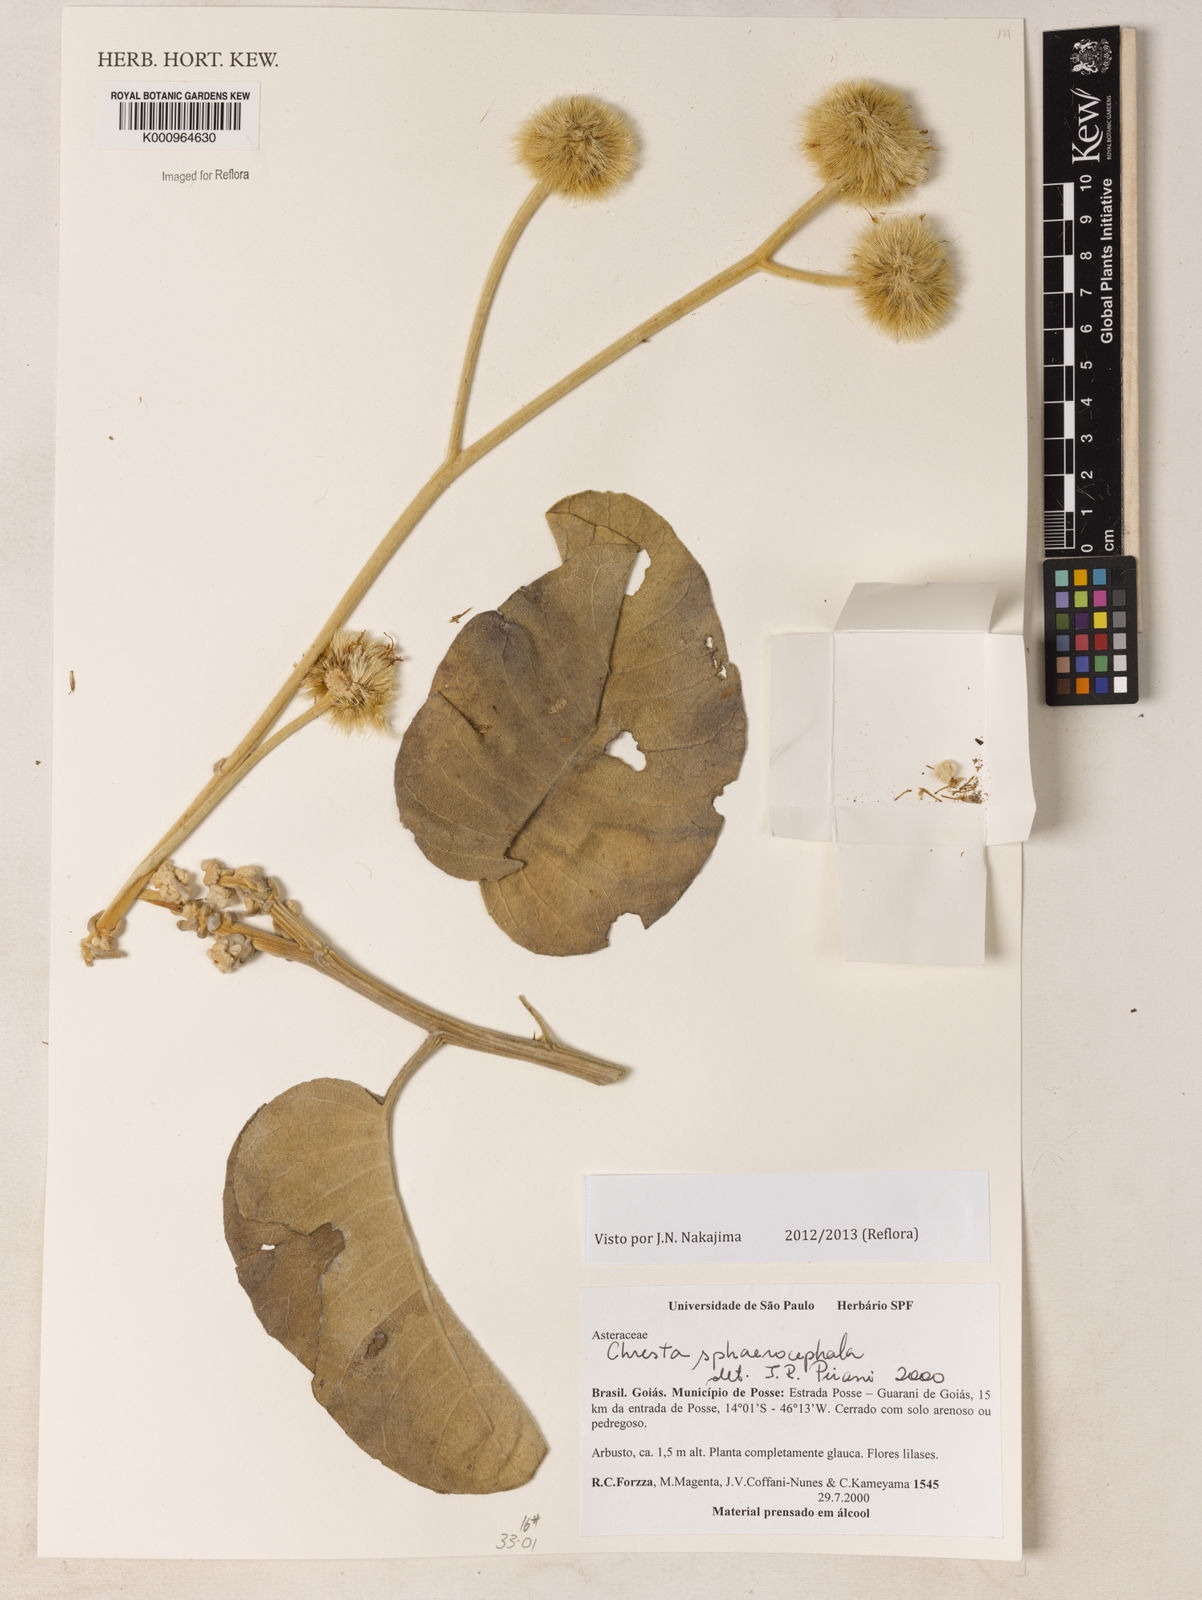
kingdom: Plantae
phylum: Tracheophyta
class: Magnoliopsida
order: Asterales
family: Asteraceae
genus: Chresta
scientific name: Chresta sphaerocephala
